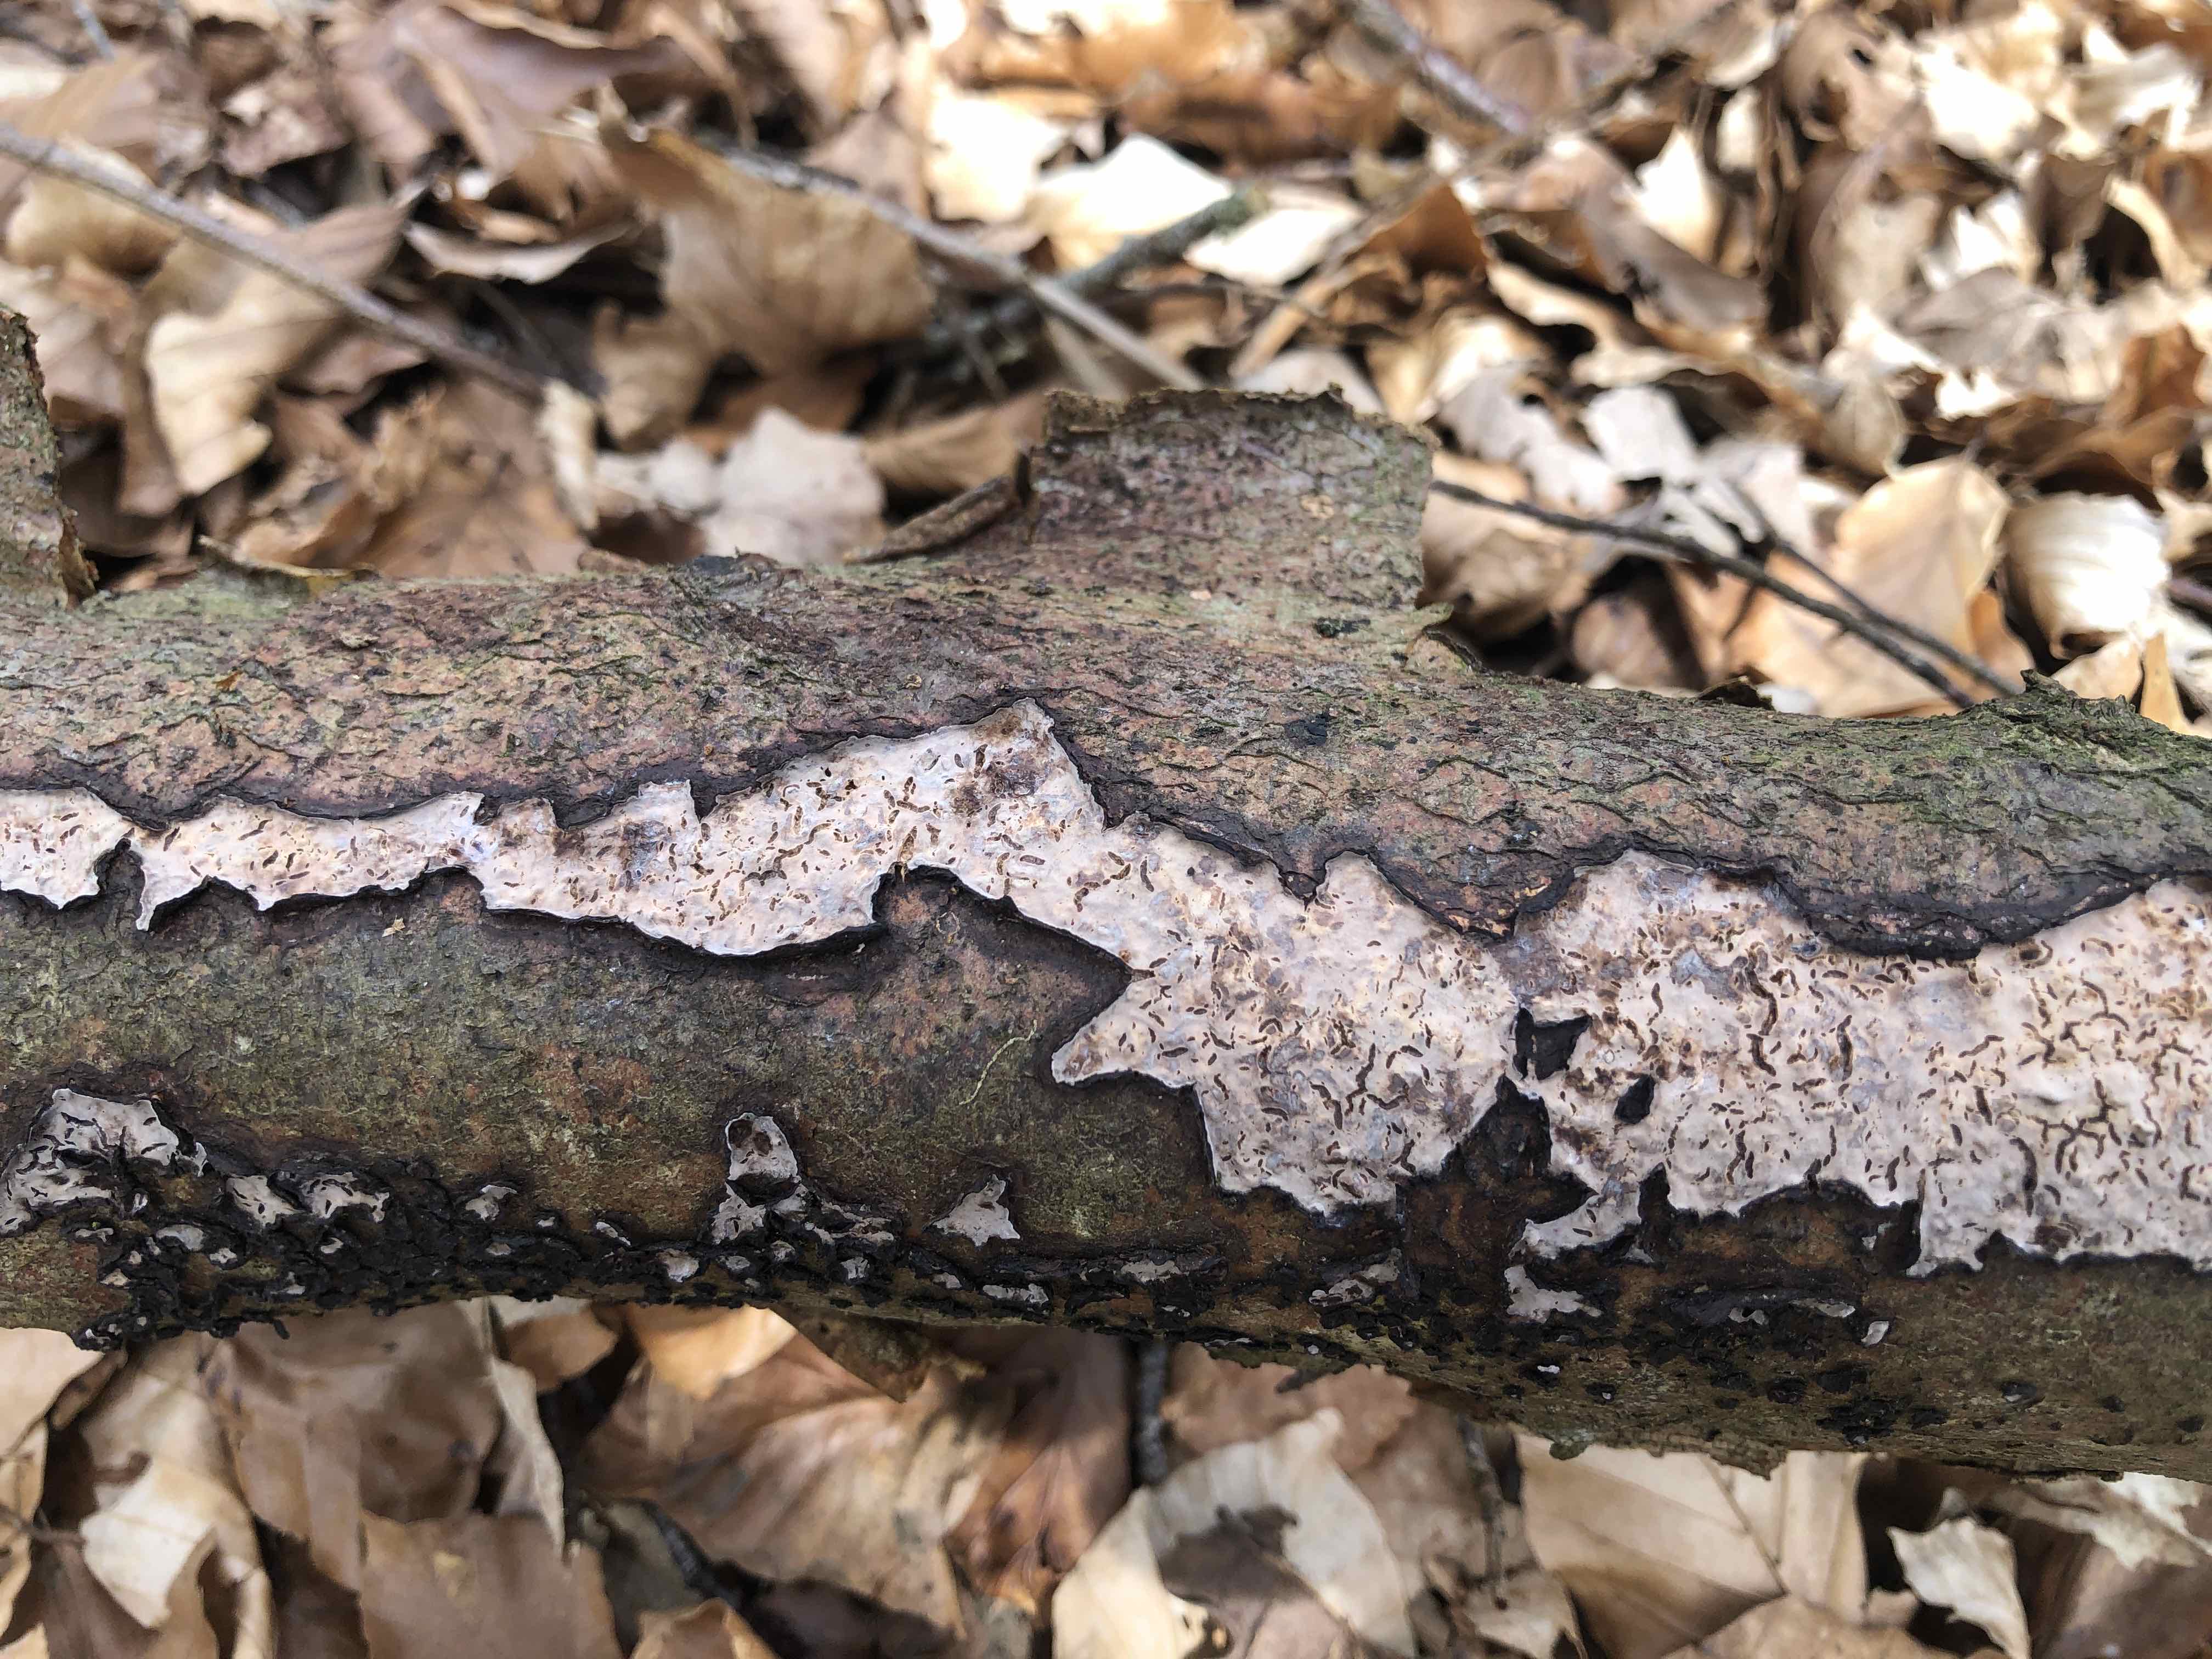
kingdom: Fungi
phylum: Basidiomycota
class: Agaricomycetes
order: Russulales
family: Peniophoraceae
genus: Peniophora
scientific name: Peniophora quercina
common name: ege-voksskind
